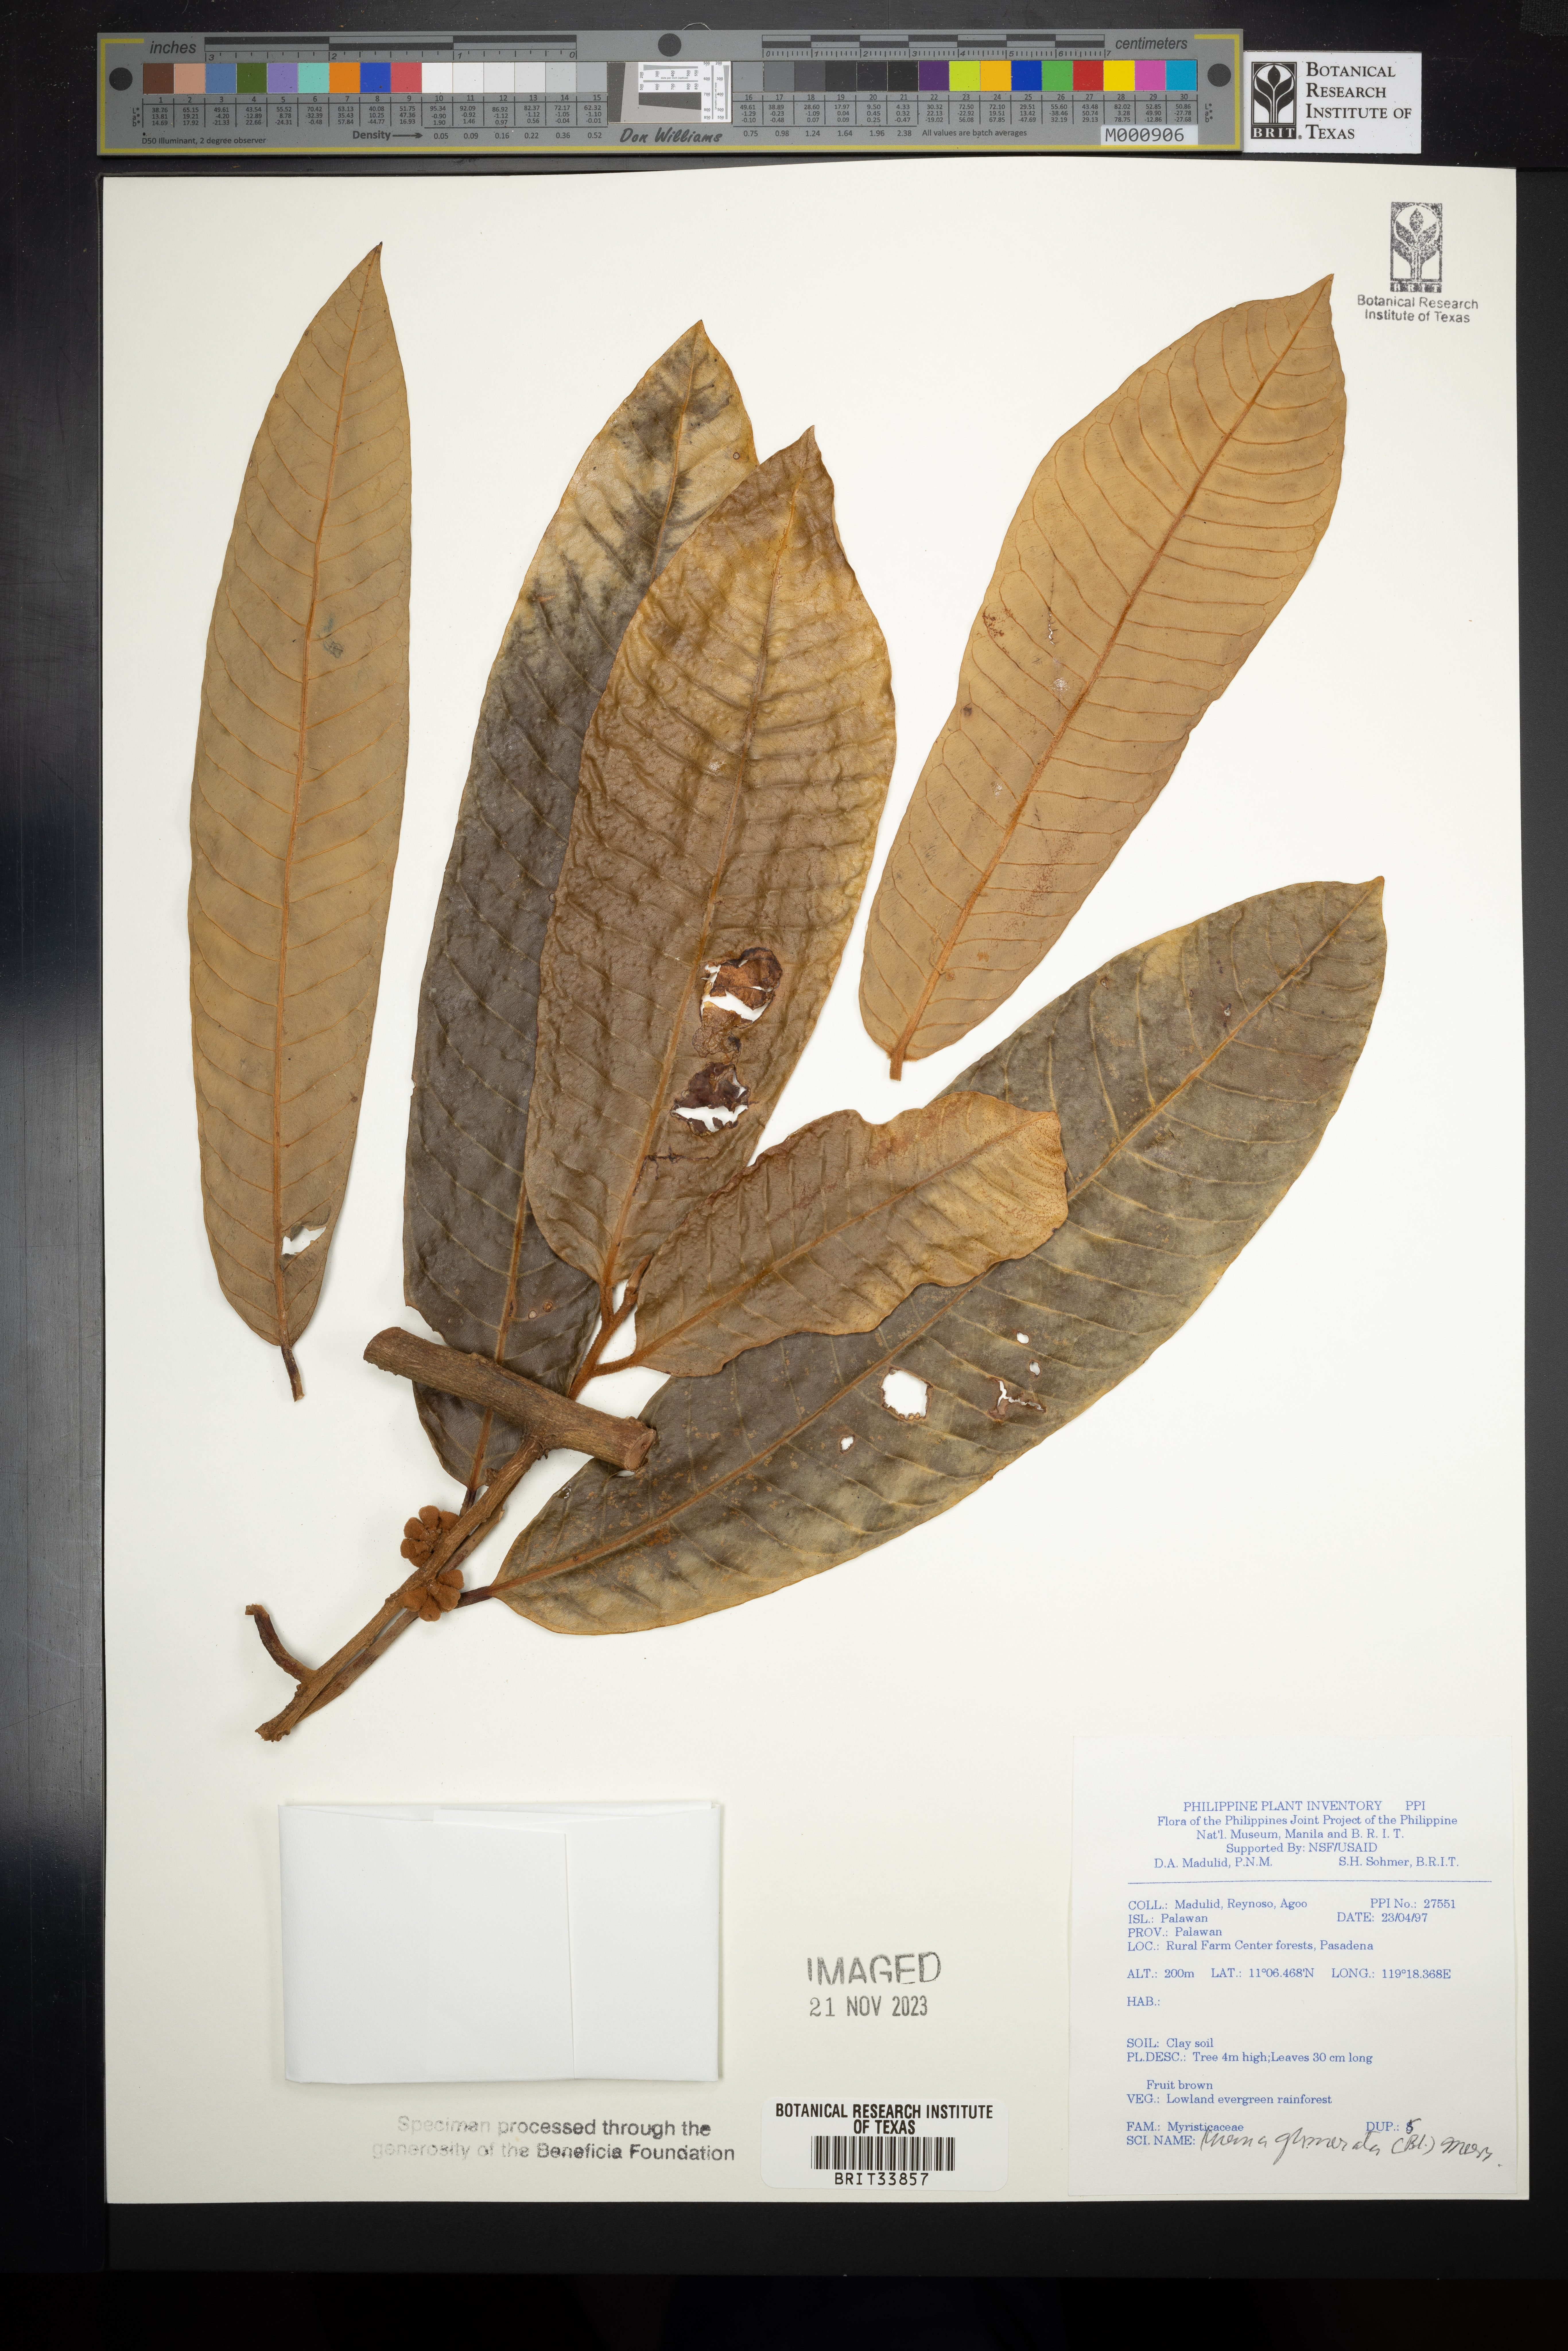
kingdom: Plantae
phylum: Tracheophyta
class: Magnoliopsida
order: Magnoliales
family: Myristicaceae
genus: Knema
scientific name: Knema glomerata
